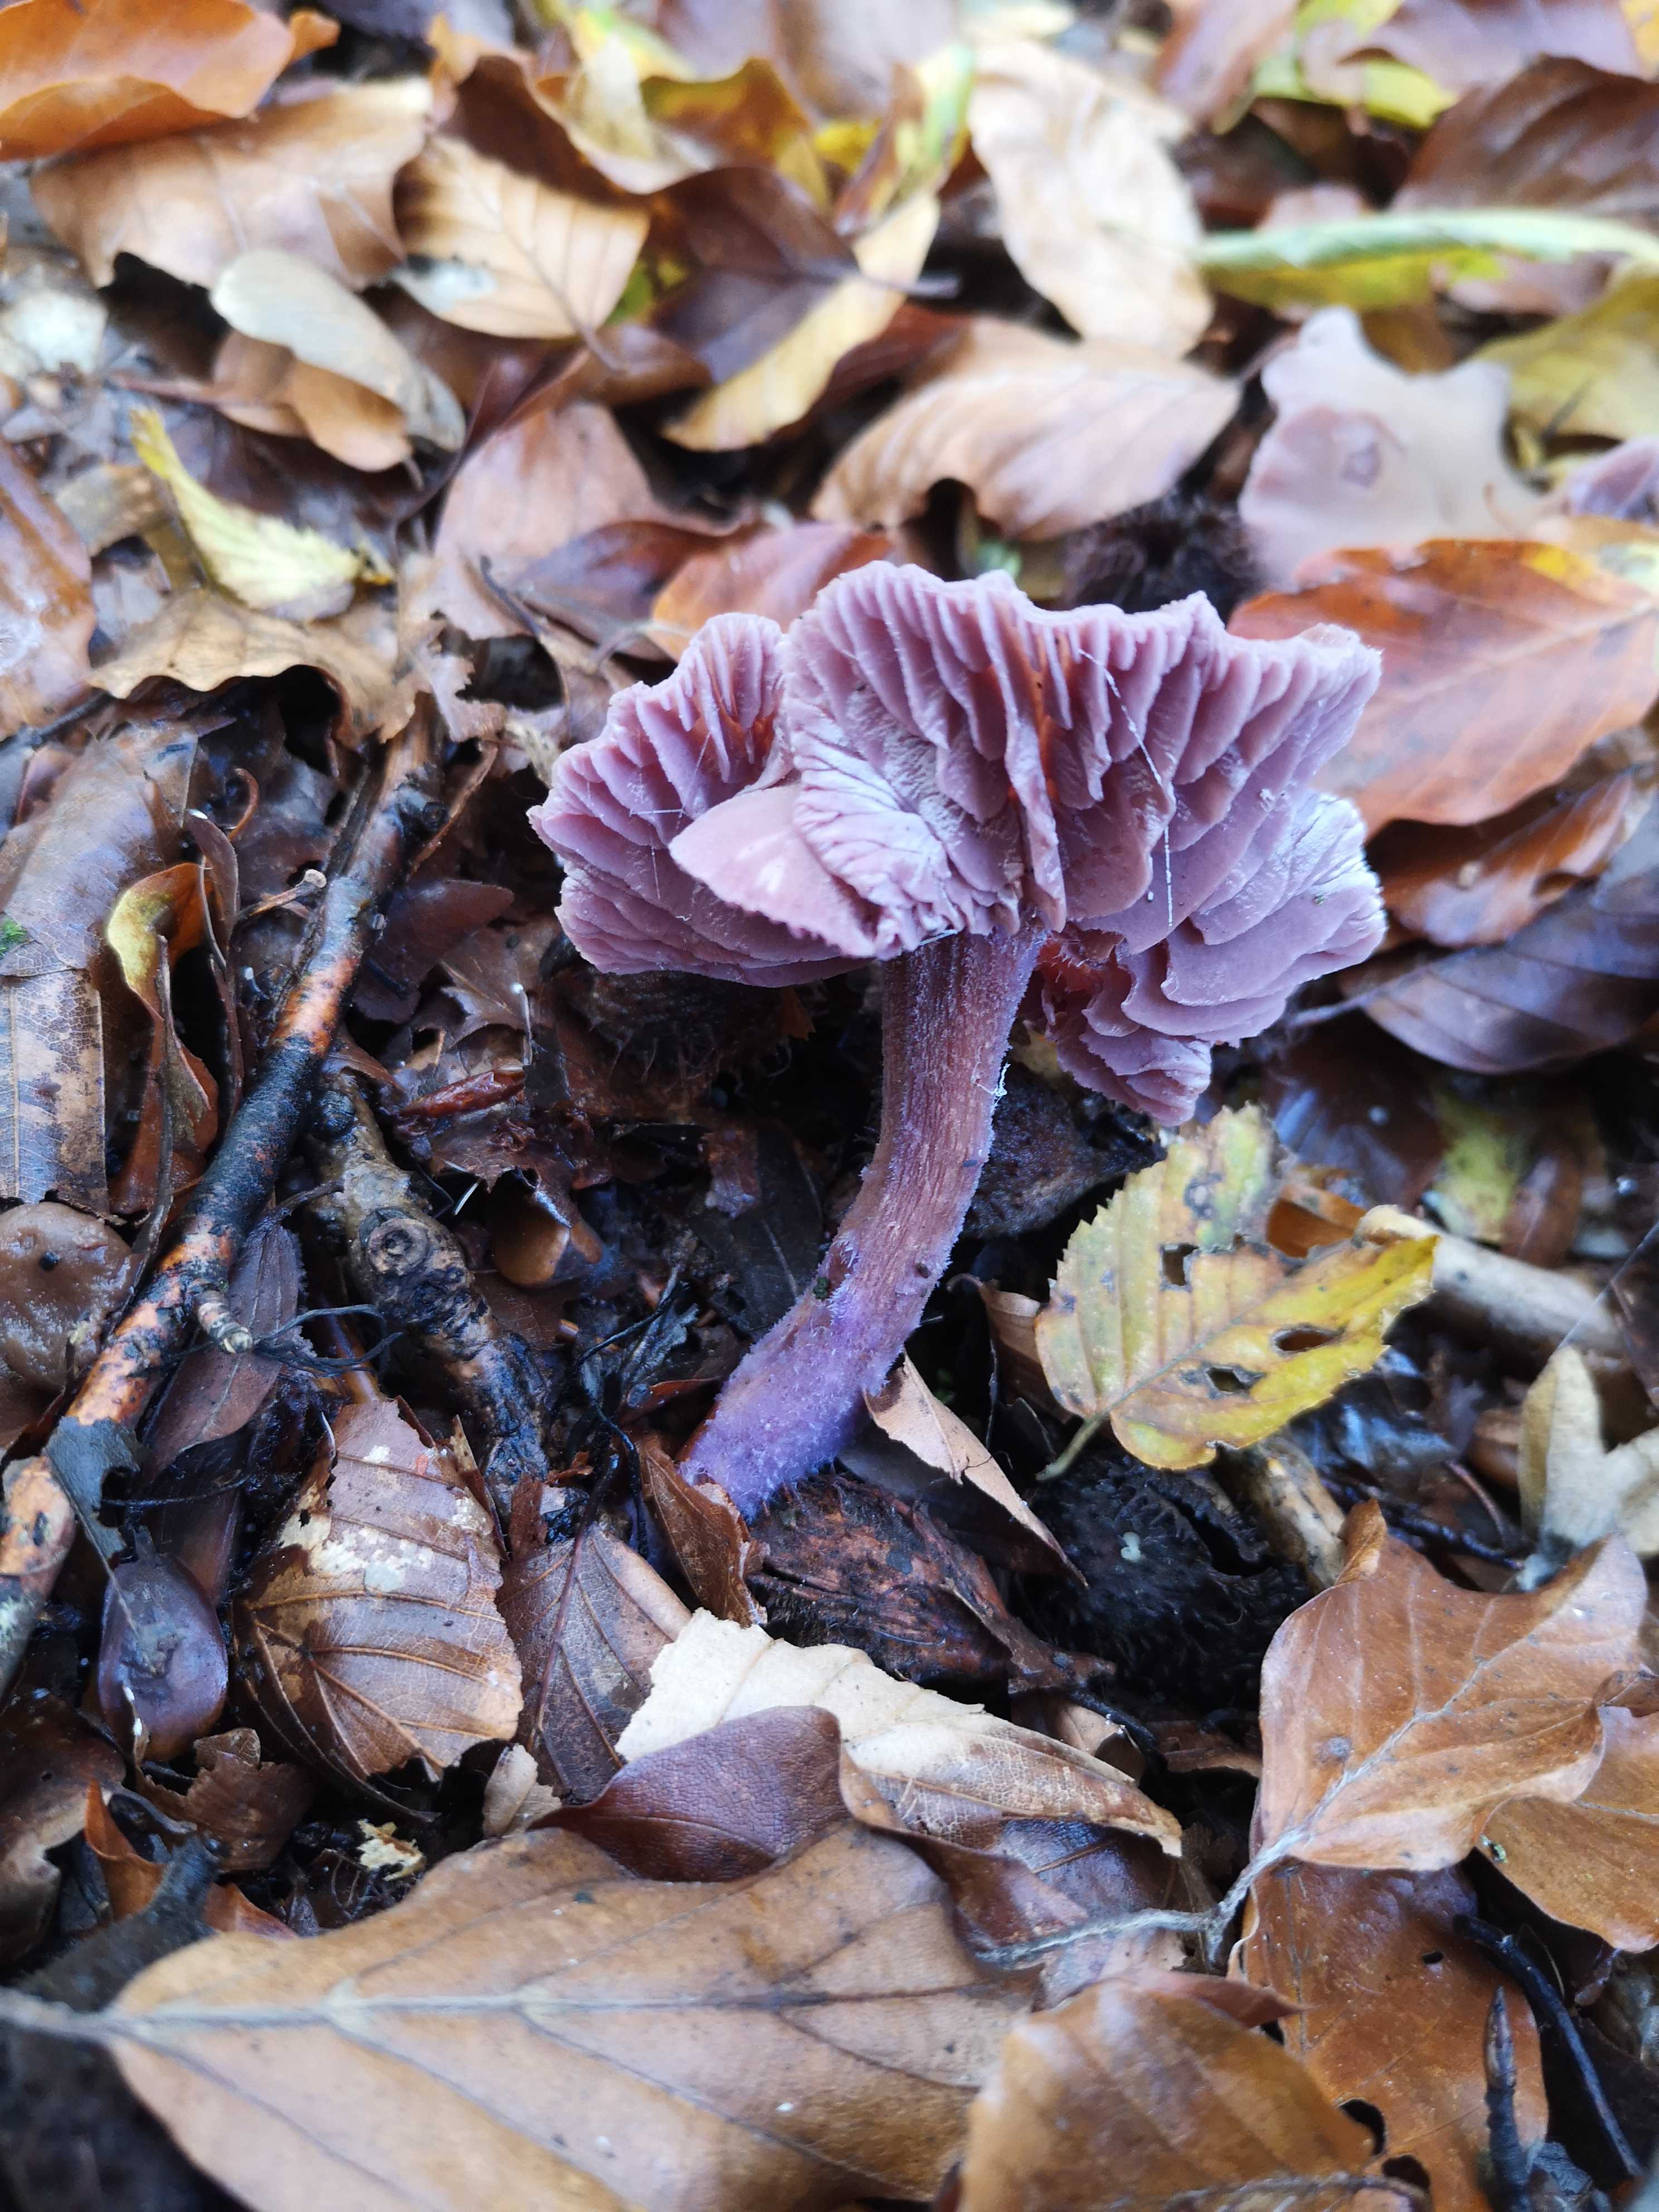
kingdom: Fungi
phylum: Basidiomycota
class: Agaricomycetes
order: Agaricales
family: Hydnangiaceae
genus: Laccaria
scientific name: Laccaria amethystina
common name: violet ametysthat
